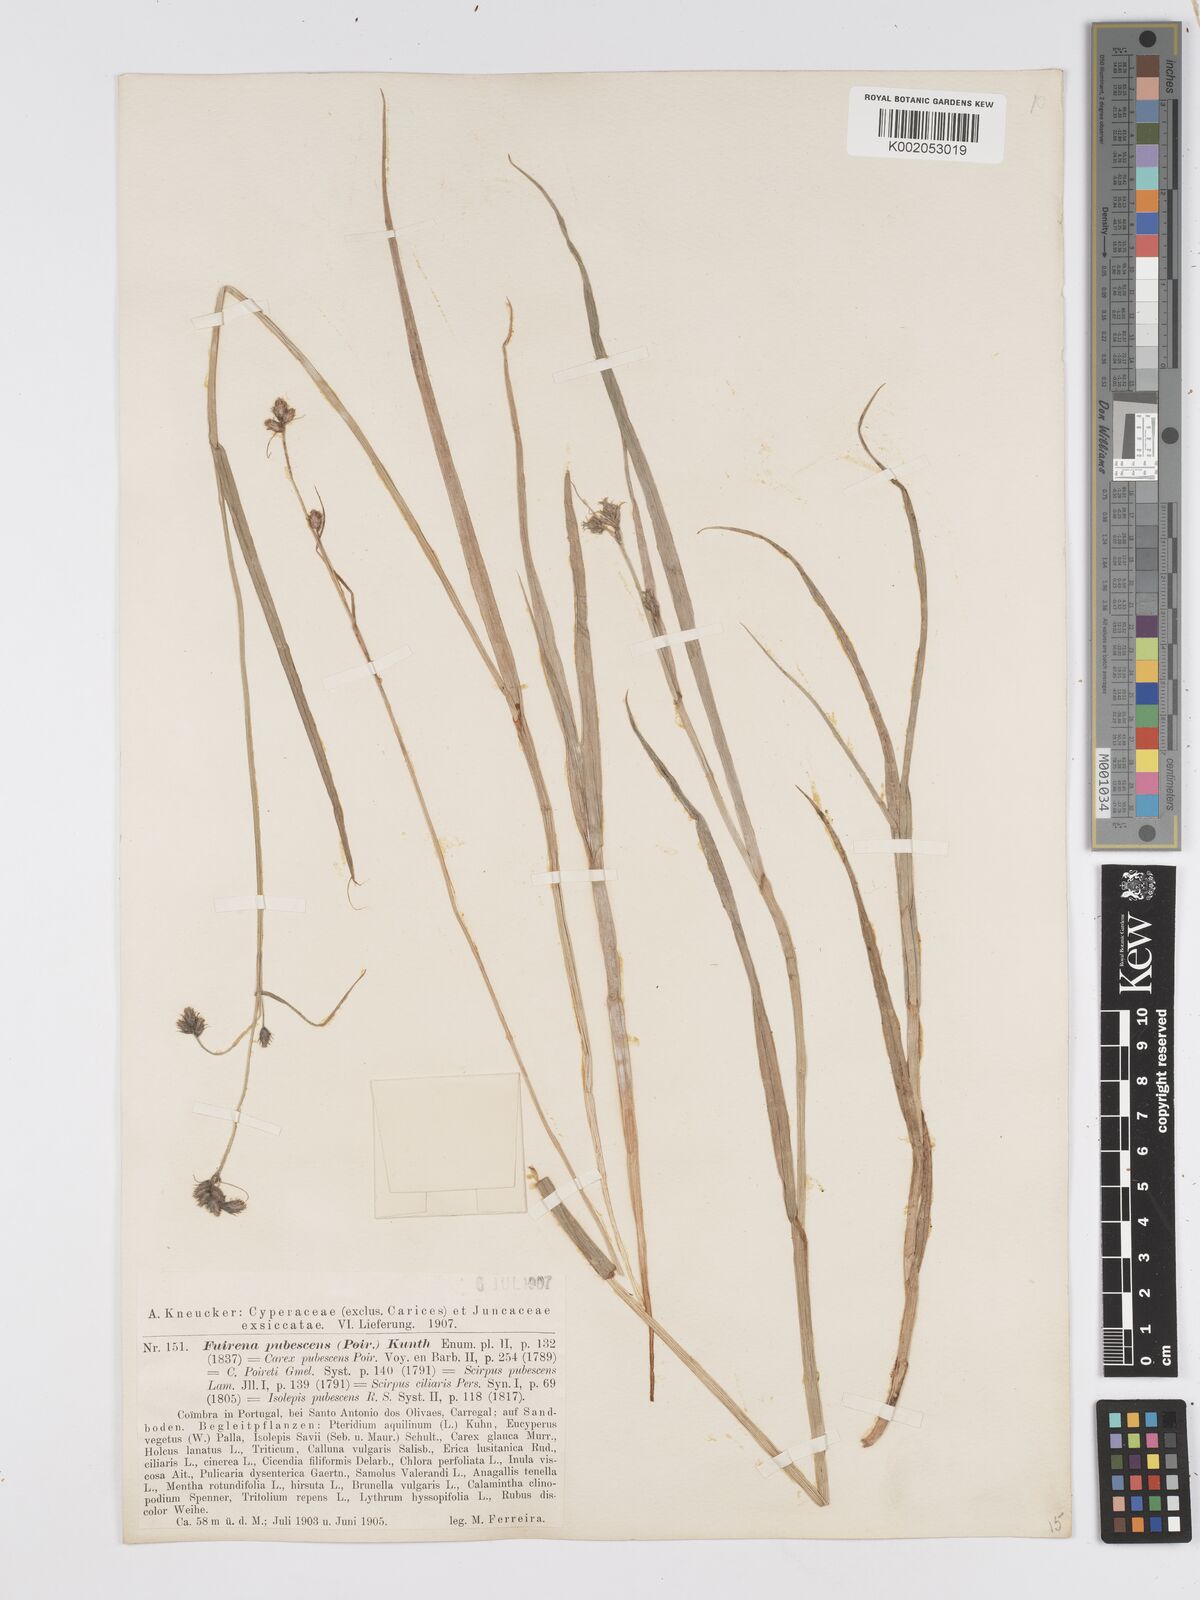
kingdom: Plantae
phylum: Tracheophyta
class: Liliopsida
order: Poales
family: Cyperaceae
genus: Fuirena
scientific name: Fuirena pubescens
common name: Hairy sedge
